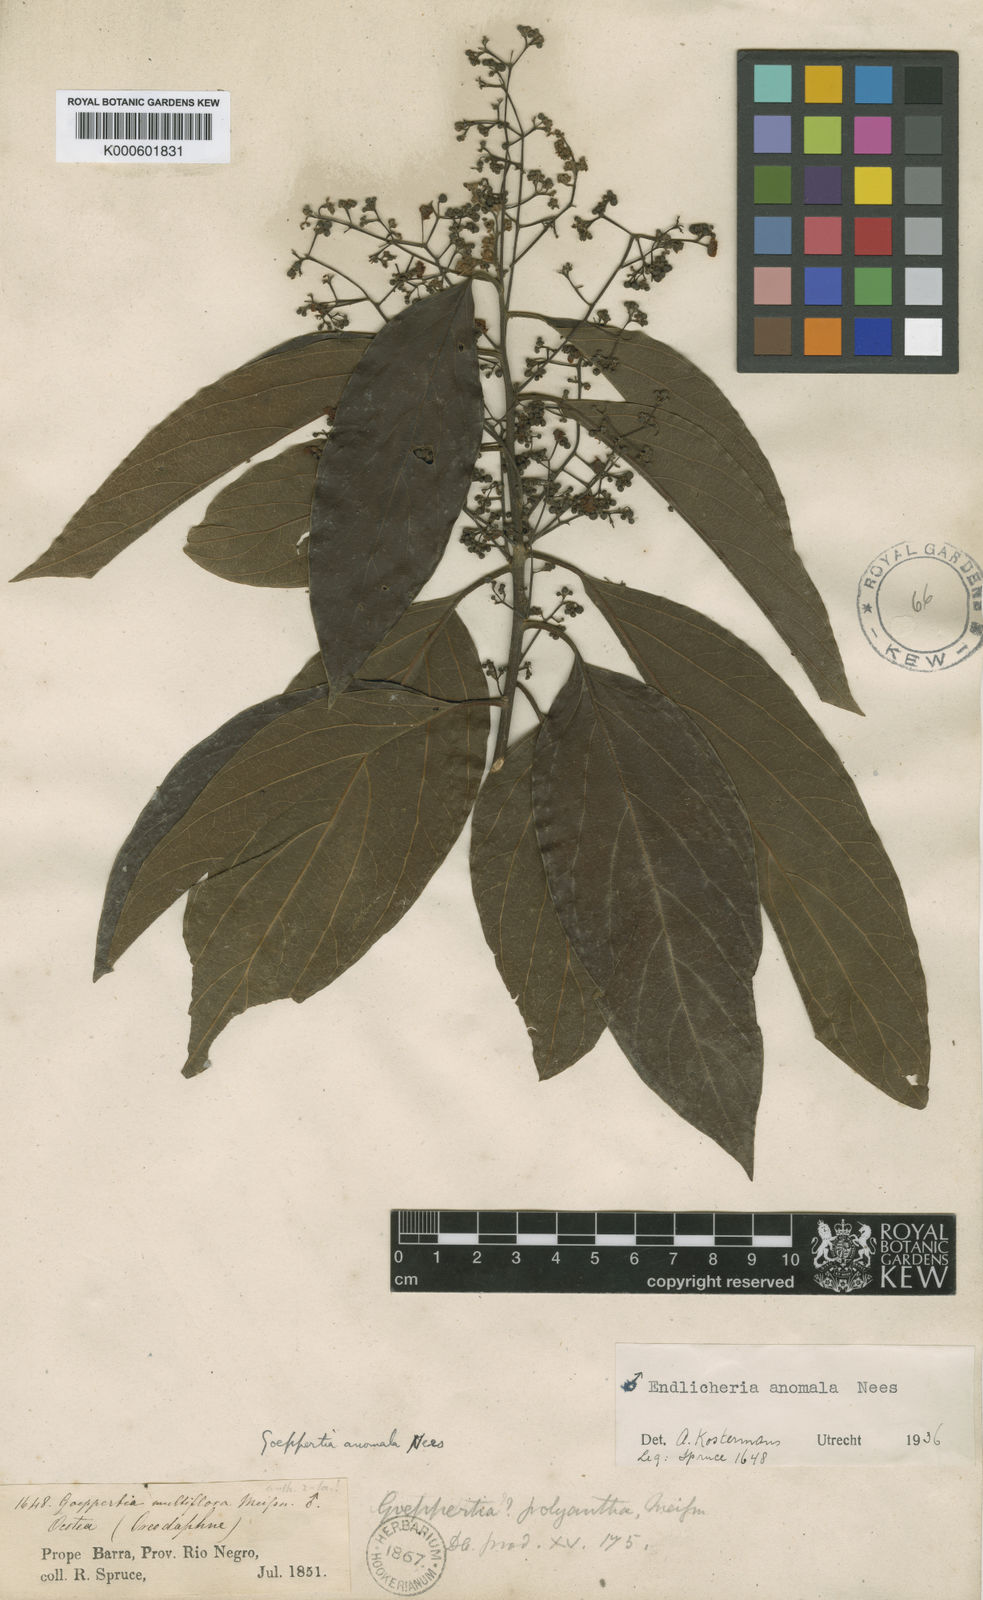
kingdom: Plantae
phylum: Tracheophyta
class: Magnoliopsida
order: Laurales
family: Lauraceae
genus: Endlicheria
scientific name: Endlicheria anomala
